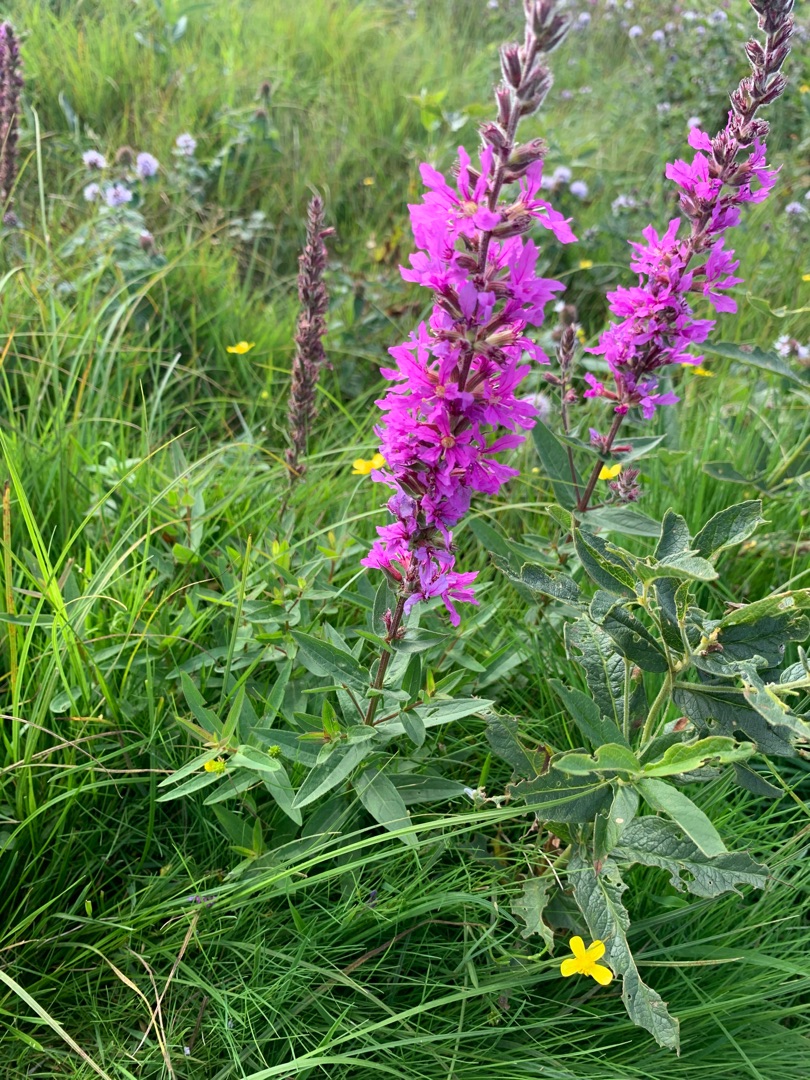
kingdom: Plantae
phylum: Tracheophyta
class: Magnoliopsida
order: Myrtales
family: Lythraceae
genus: Lythrum
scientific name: Lythrum salicaria
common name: Kattehale
